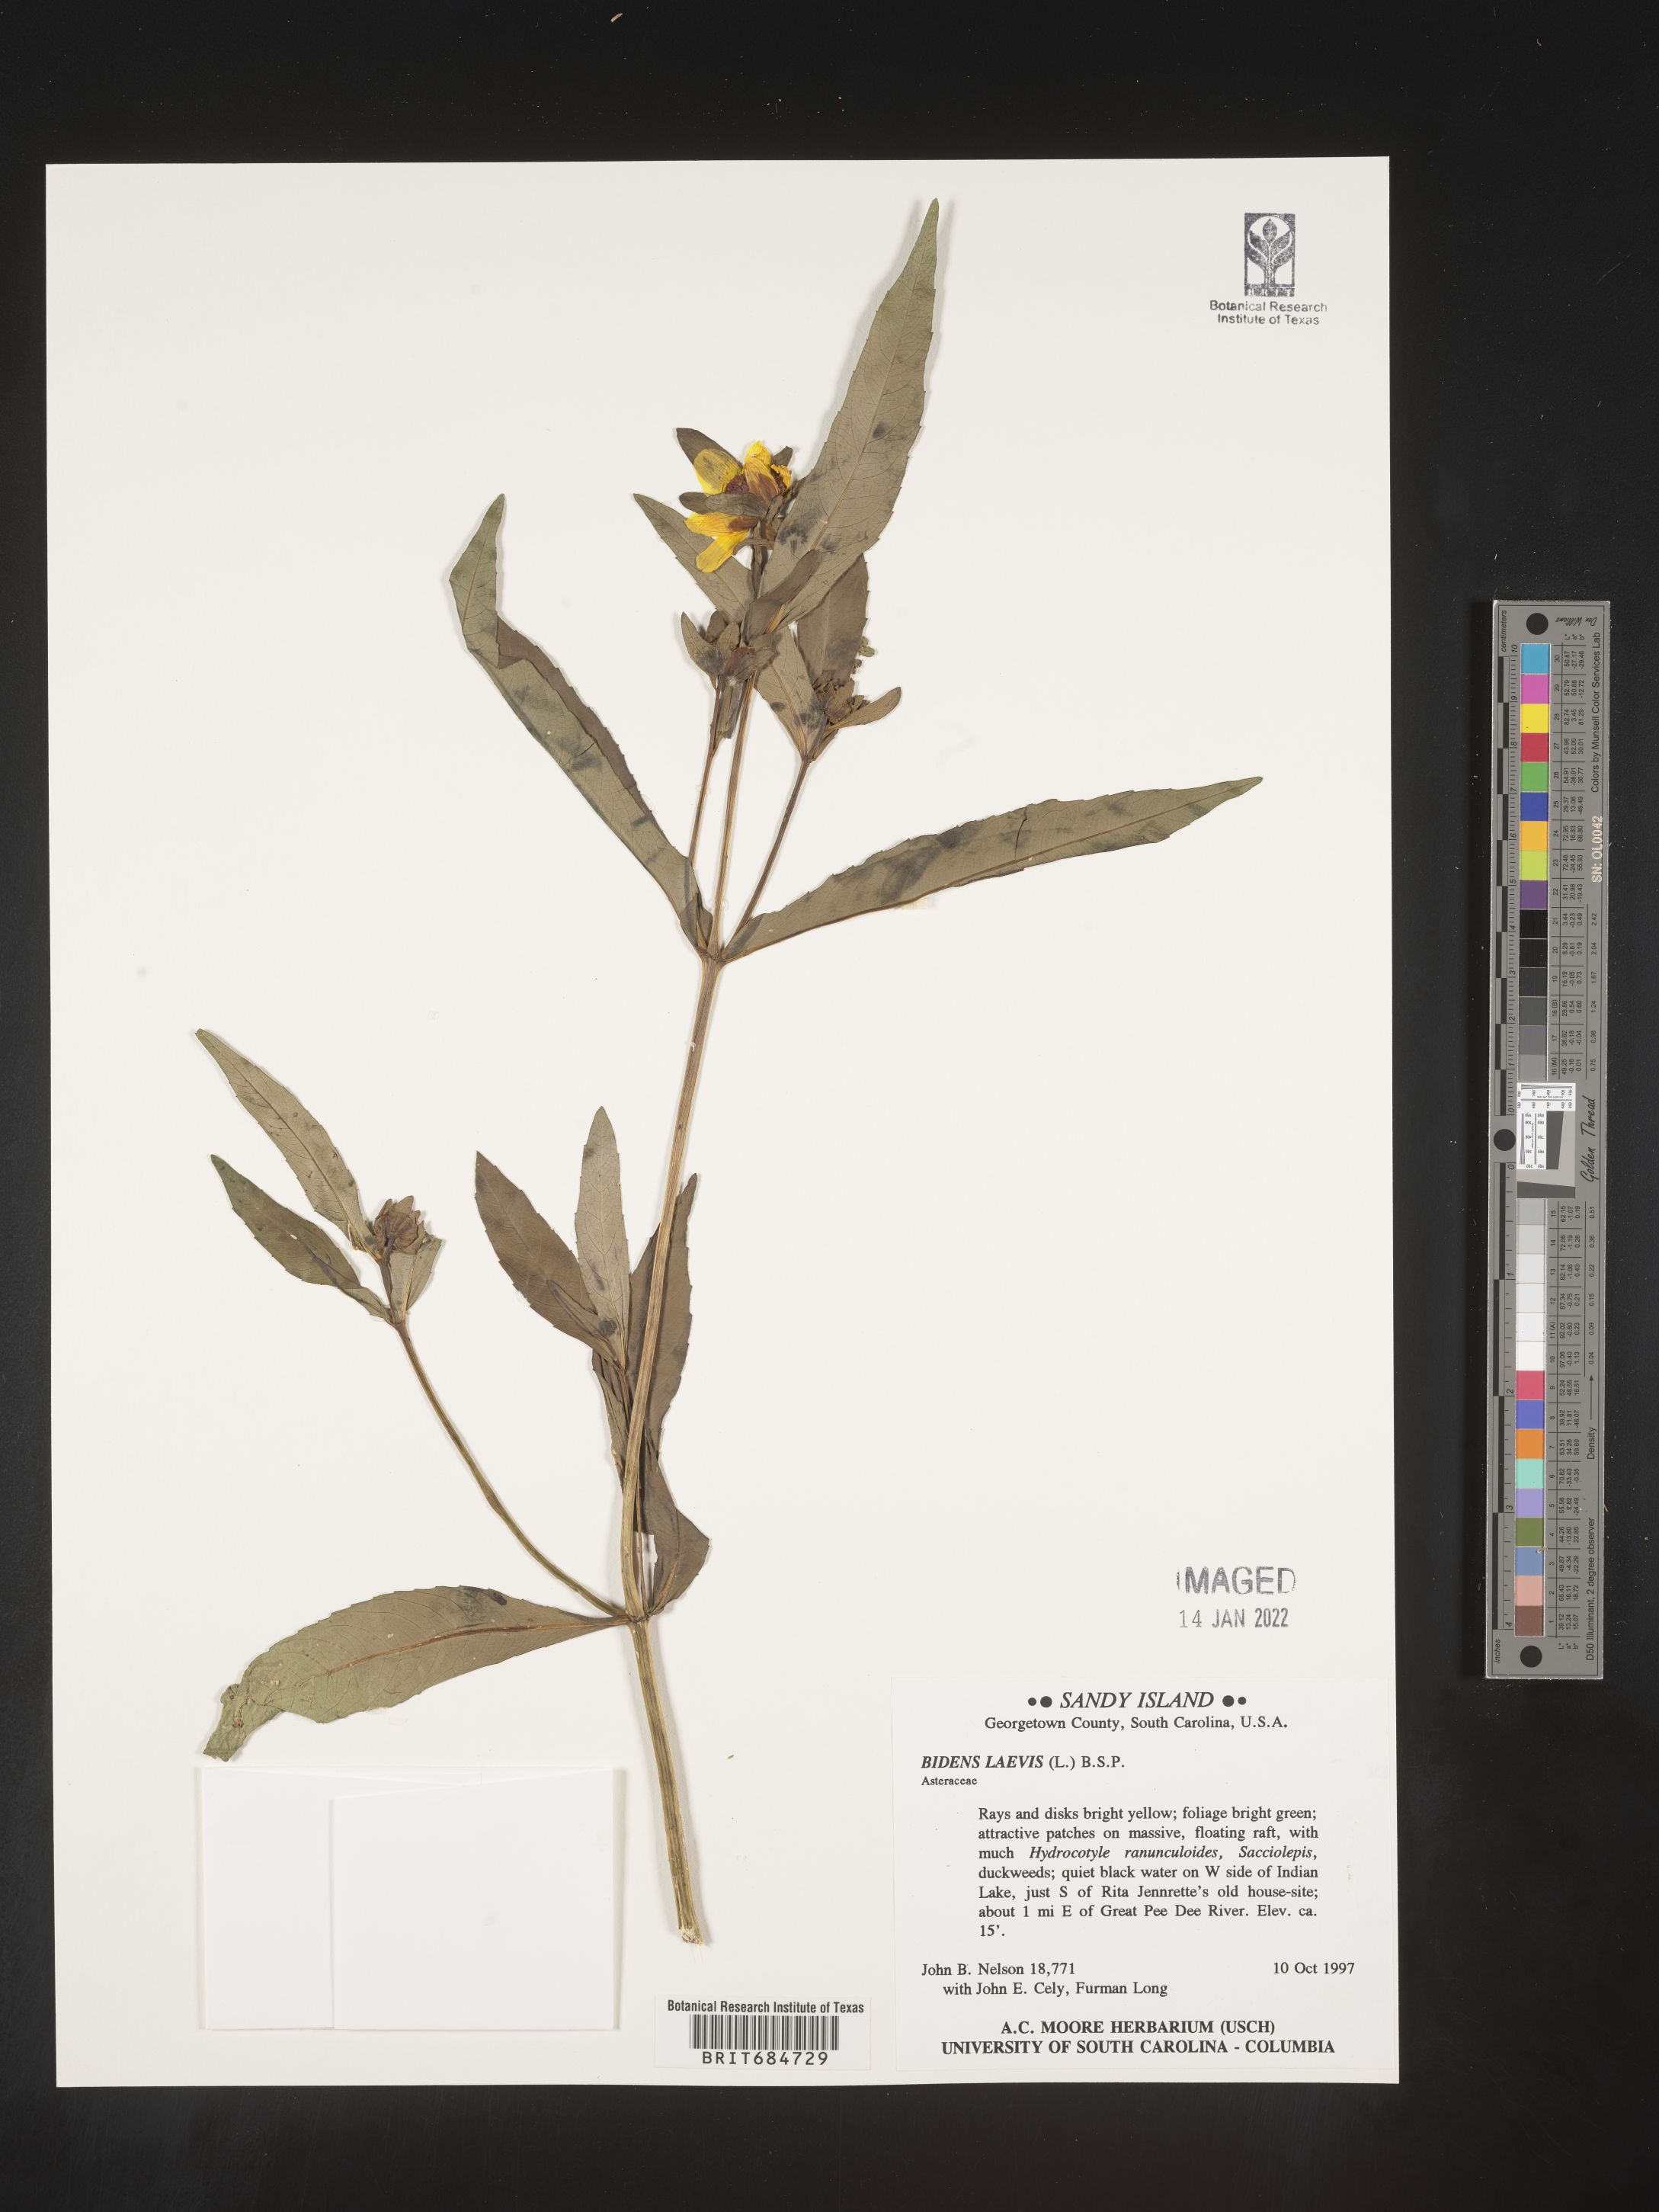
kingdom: Plantae
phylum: Tracheophyta
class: Magnoliopsida
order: Asterales
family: Asteraceae
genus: Bidens
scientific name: Bidens laevis
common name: Larger bur-marigold
